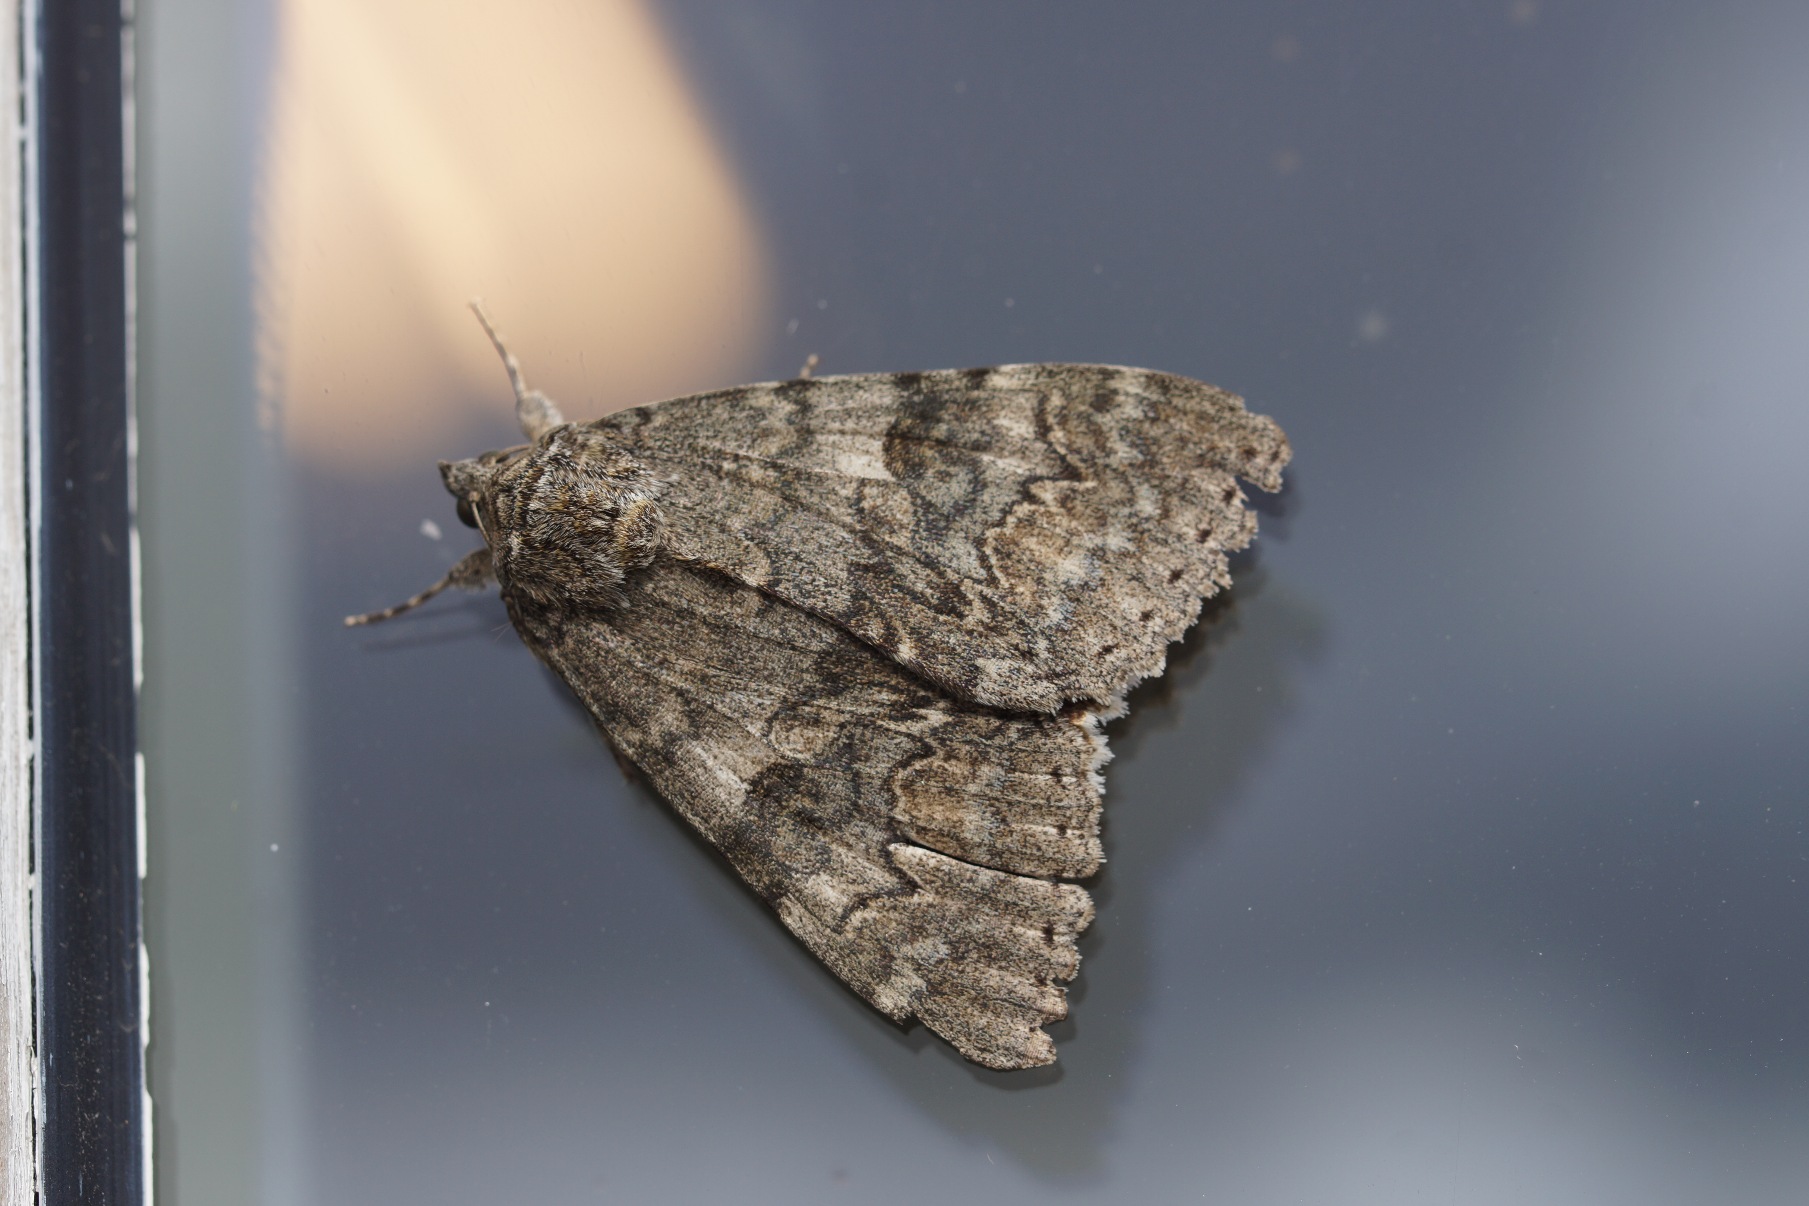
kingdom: Animalia
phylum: Arthropoda
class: Insecta
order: Lepidoptera
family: Erebidae
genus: Catocala
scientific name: Catocala nupta
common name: Rødt ordensbånd
